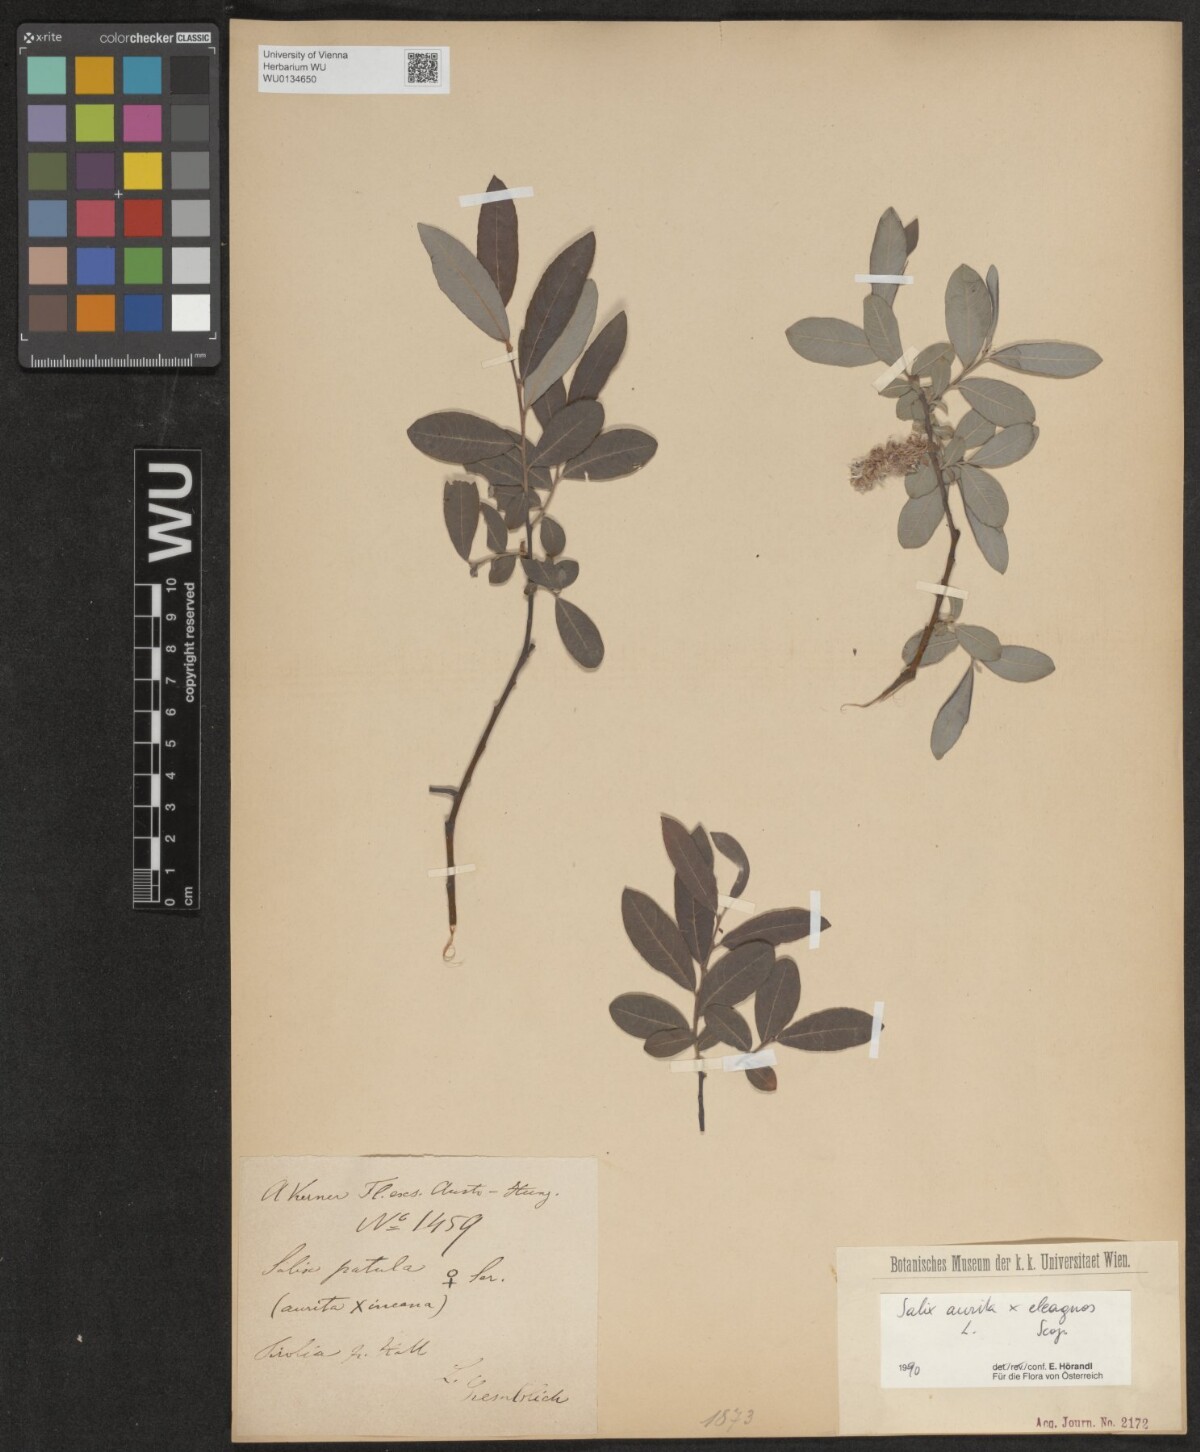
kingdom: Plantae
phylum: Tracheophyta
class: Magnoliopsida
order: Malpighiales
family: Salicaceae
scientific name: Salicaceae
